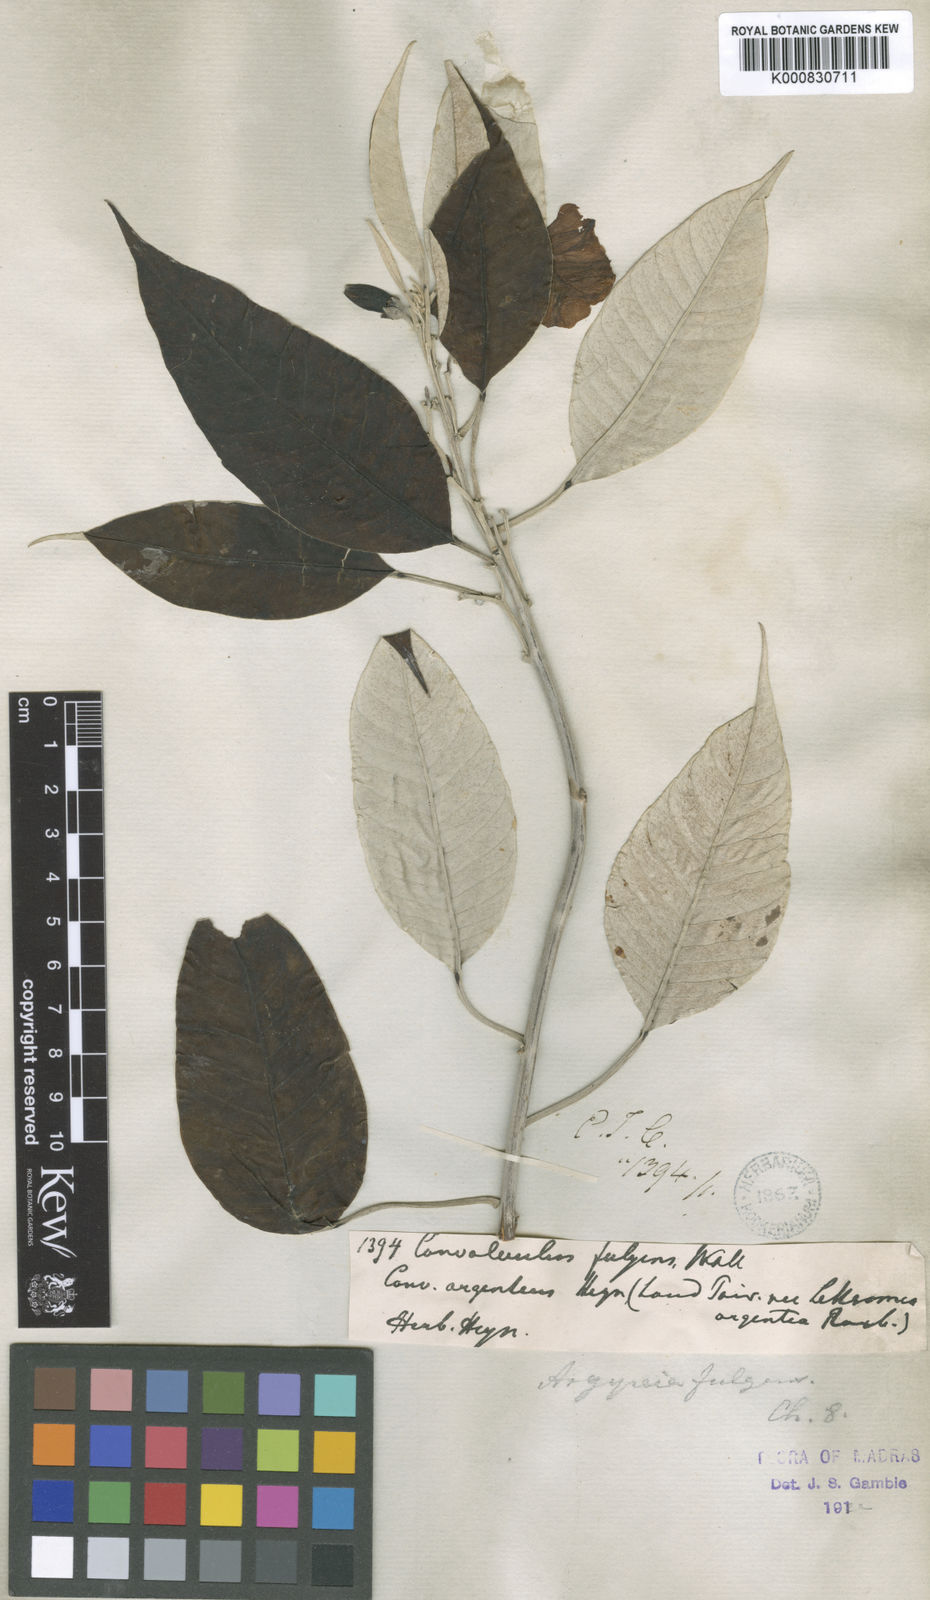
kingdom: Plantae
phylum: Tracheophyta
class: Magnoliopsida
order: Solanales
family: Convolvulaceae
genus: Argyreia
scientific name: Argyreia fulgens
